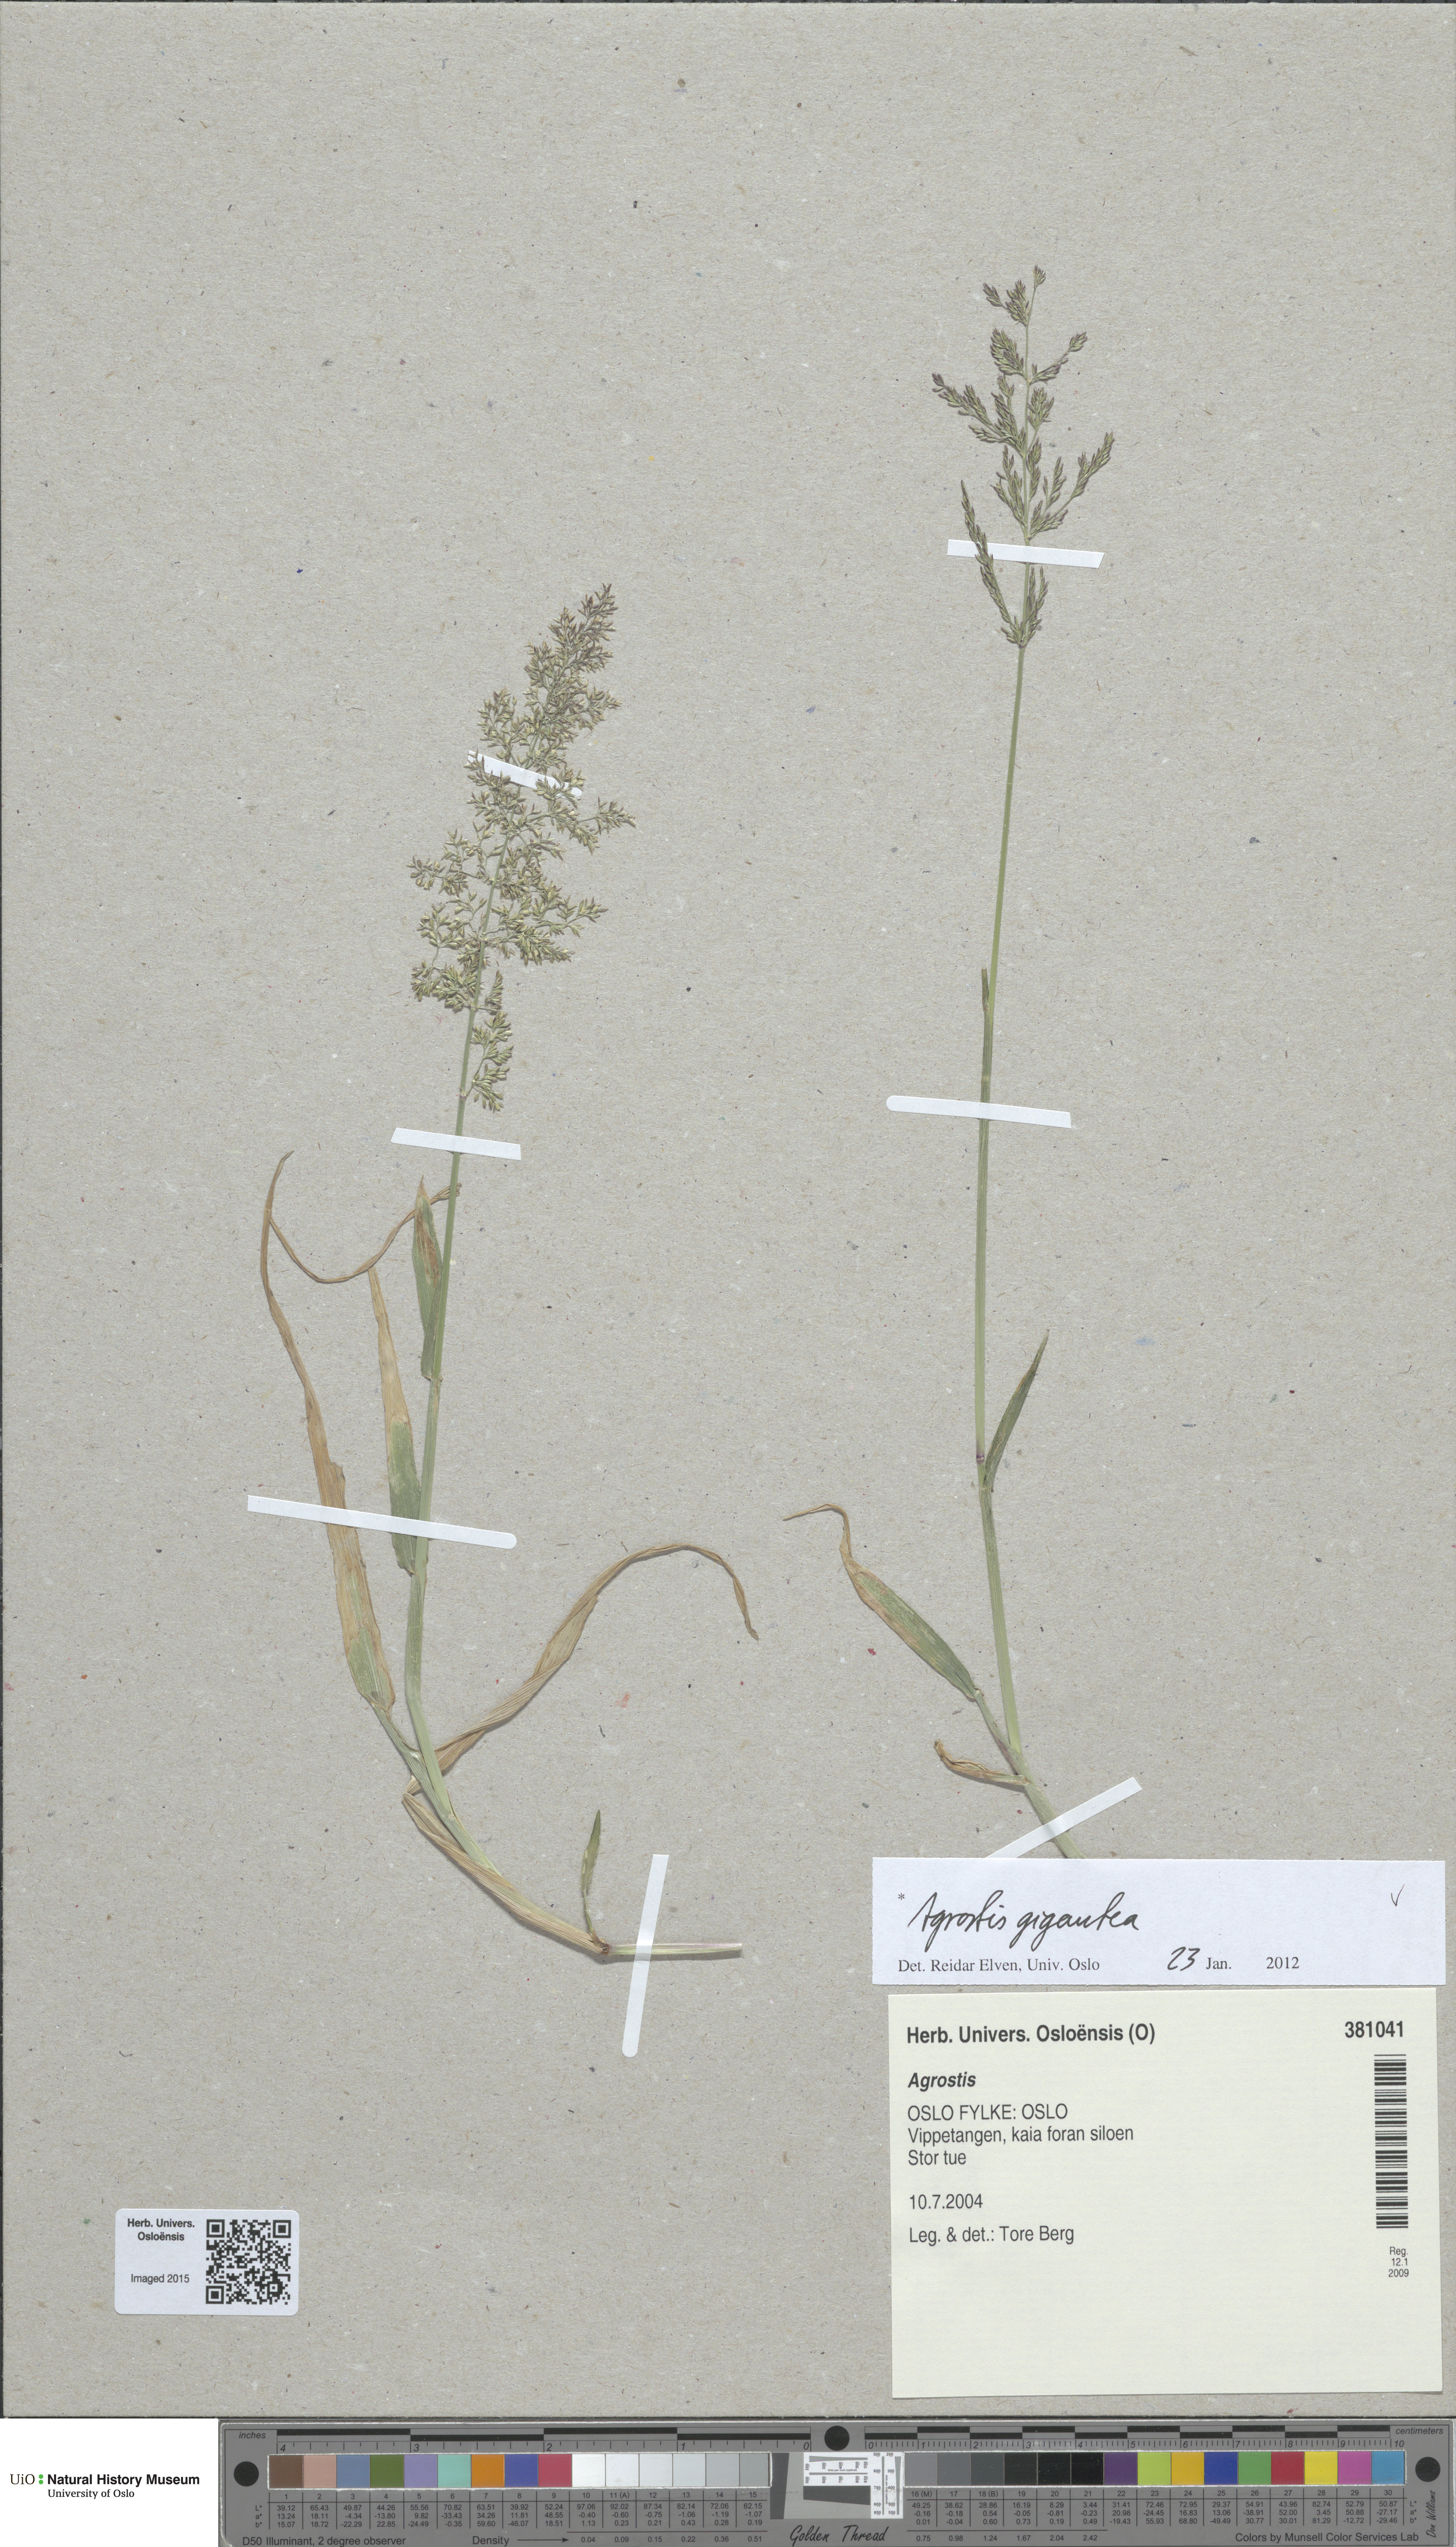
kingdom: Plantae
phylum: Tracheophyta
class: Liliopsida
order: Poales
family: Poaceae
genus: Agrostis
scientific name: Agrostis gigantea
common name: Black bent
